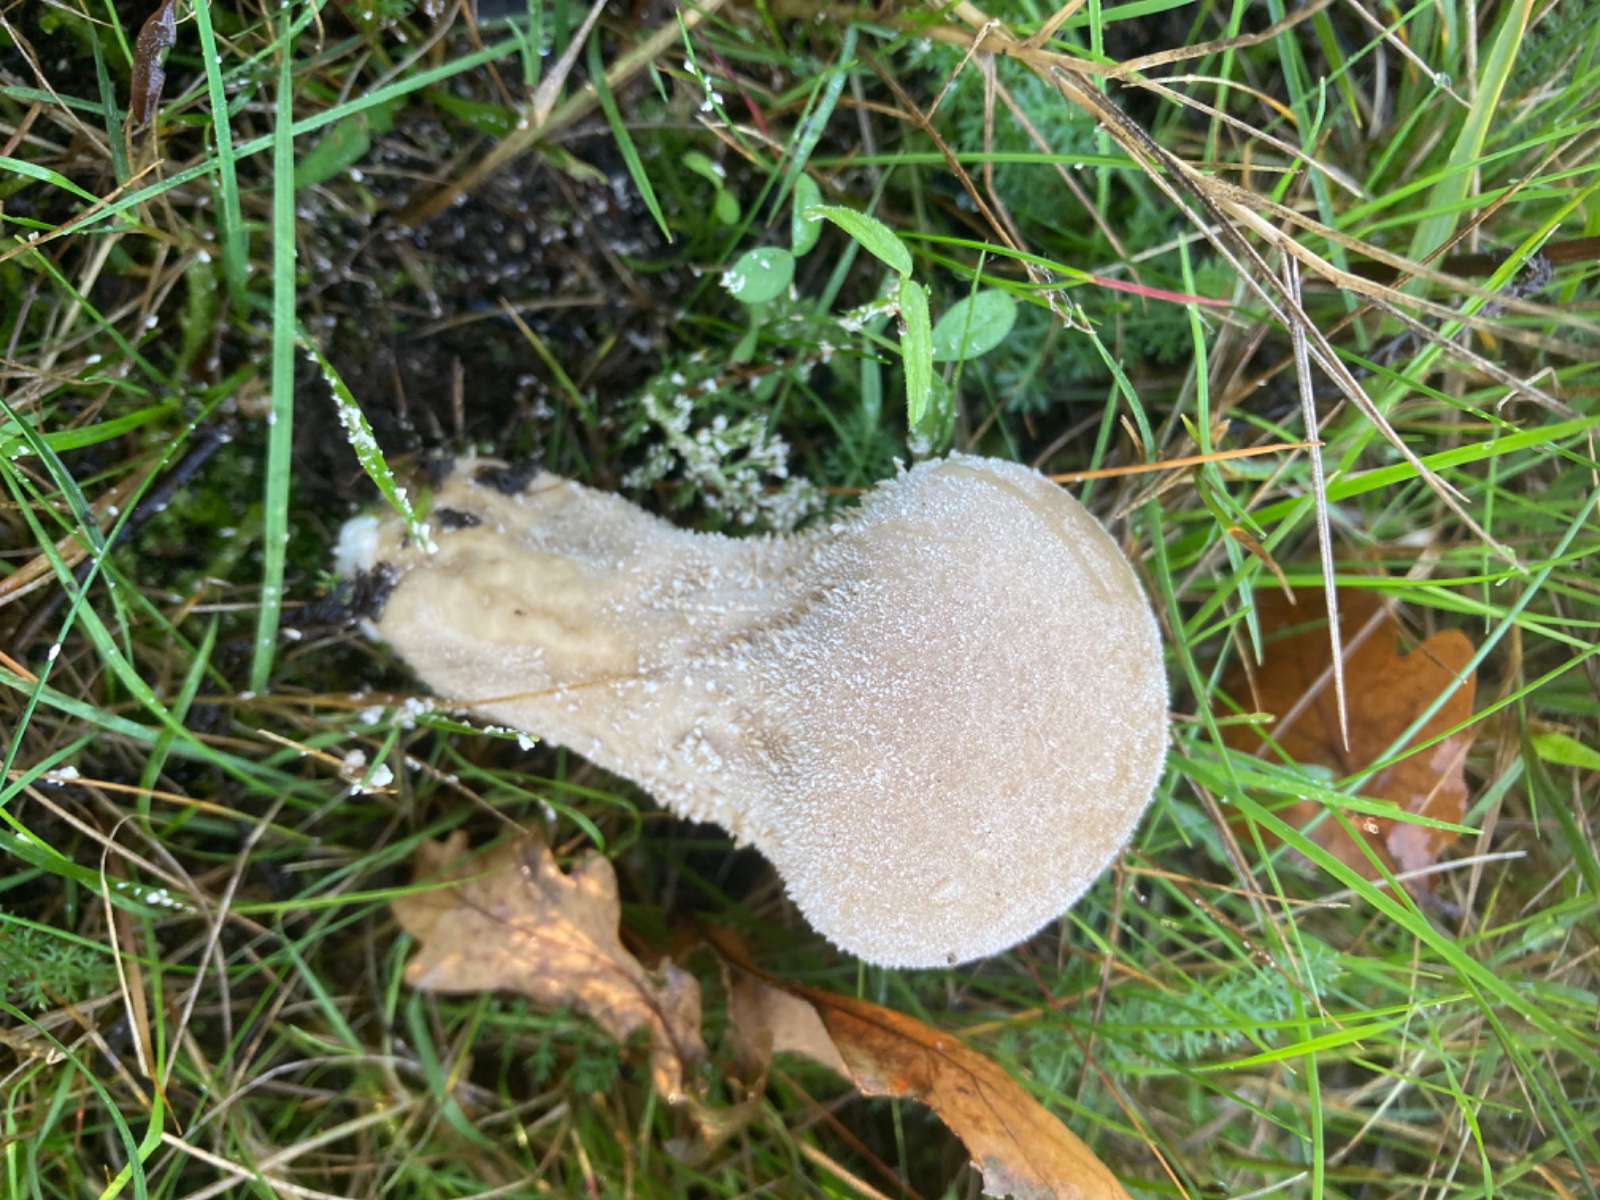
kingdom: Fungi
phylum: Basidiomycota
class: Agaricomycetes
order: Agaricales
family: Lycoperdaceae
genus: Lycoperdon
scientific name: Lycoperdon excipuliforme
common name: højstokket støvbold
